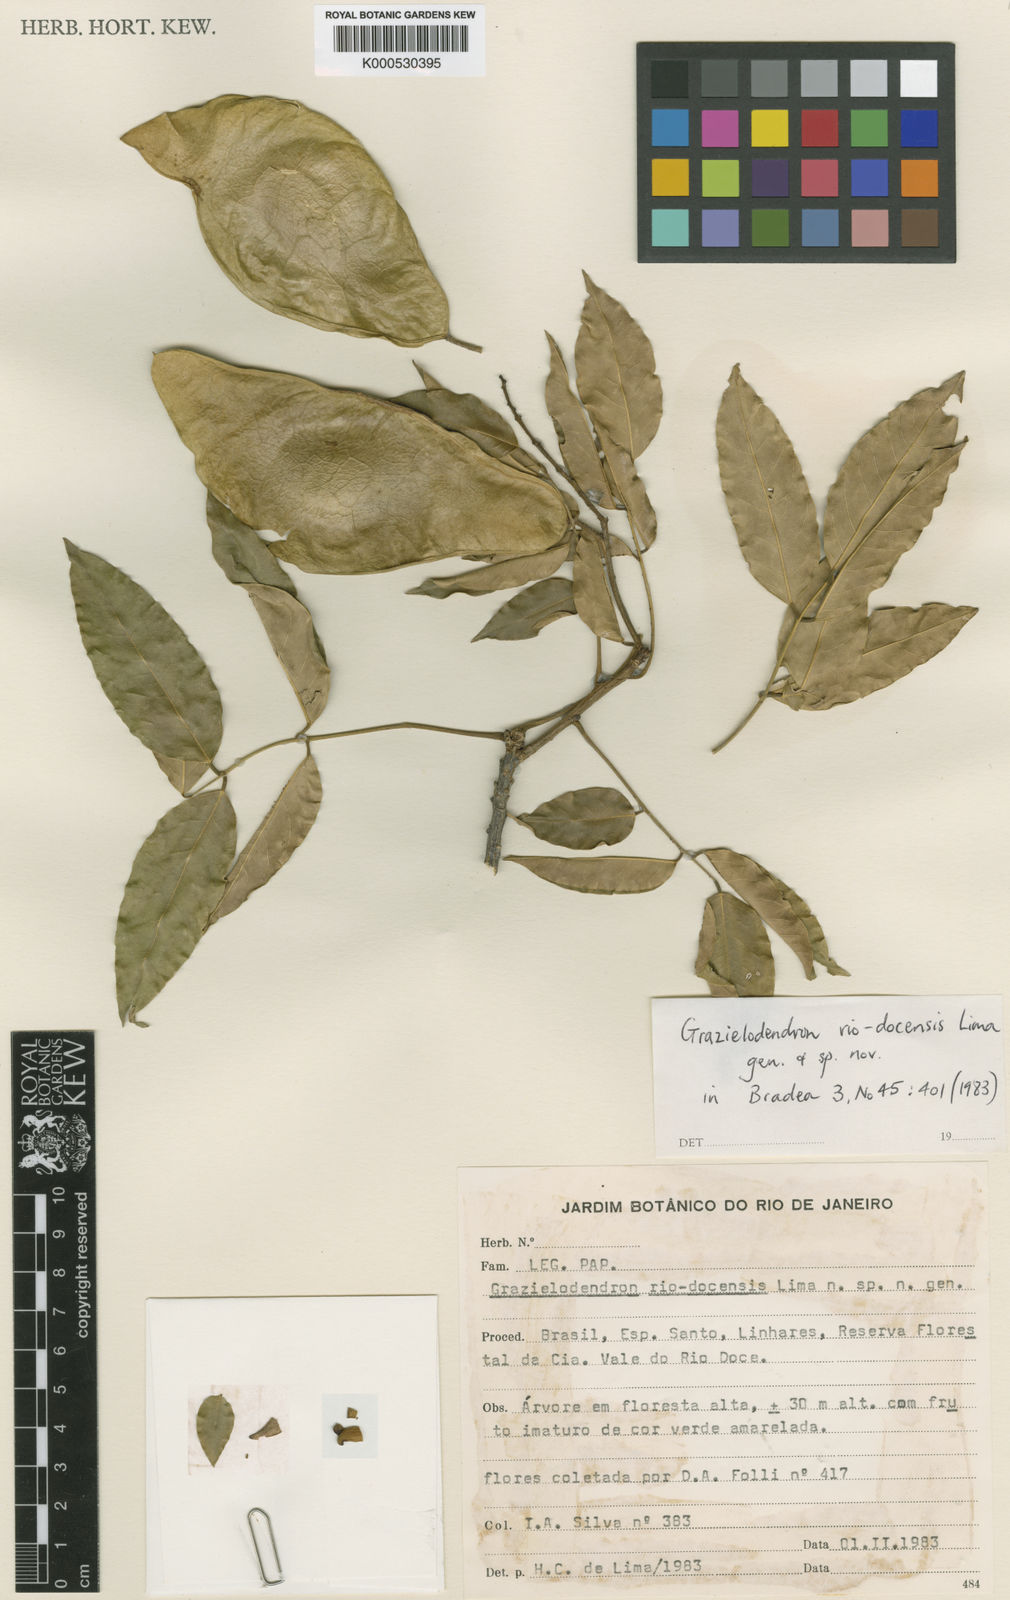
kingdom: Plantae
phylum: Tracheophyta
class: Magnoliopsida
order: Fabales
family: Fabaceae
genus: Grazielodendron
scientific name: Grazielodendron riodocensis
